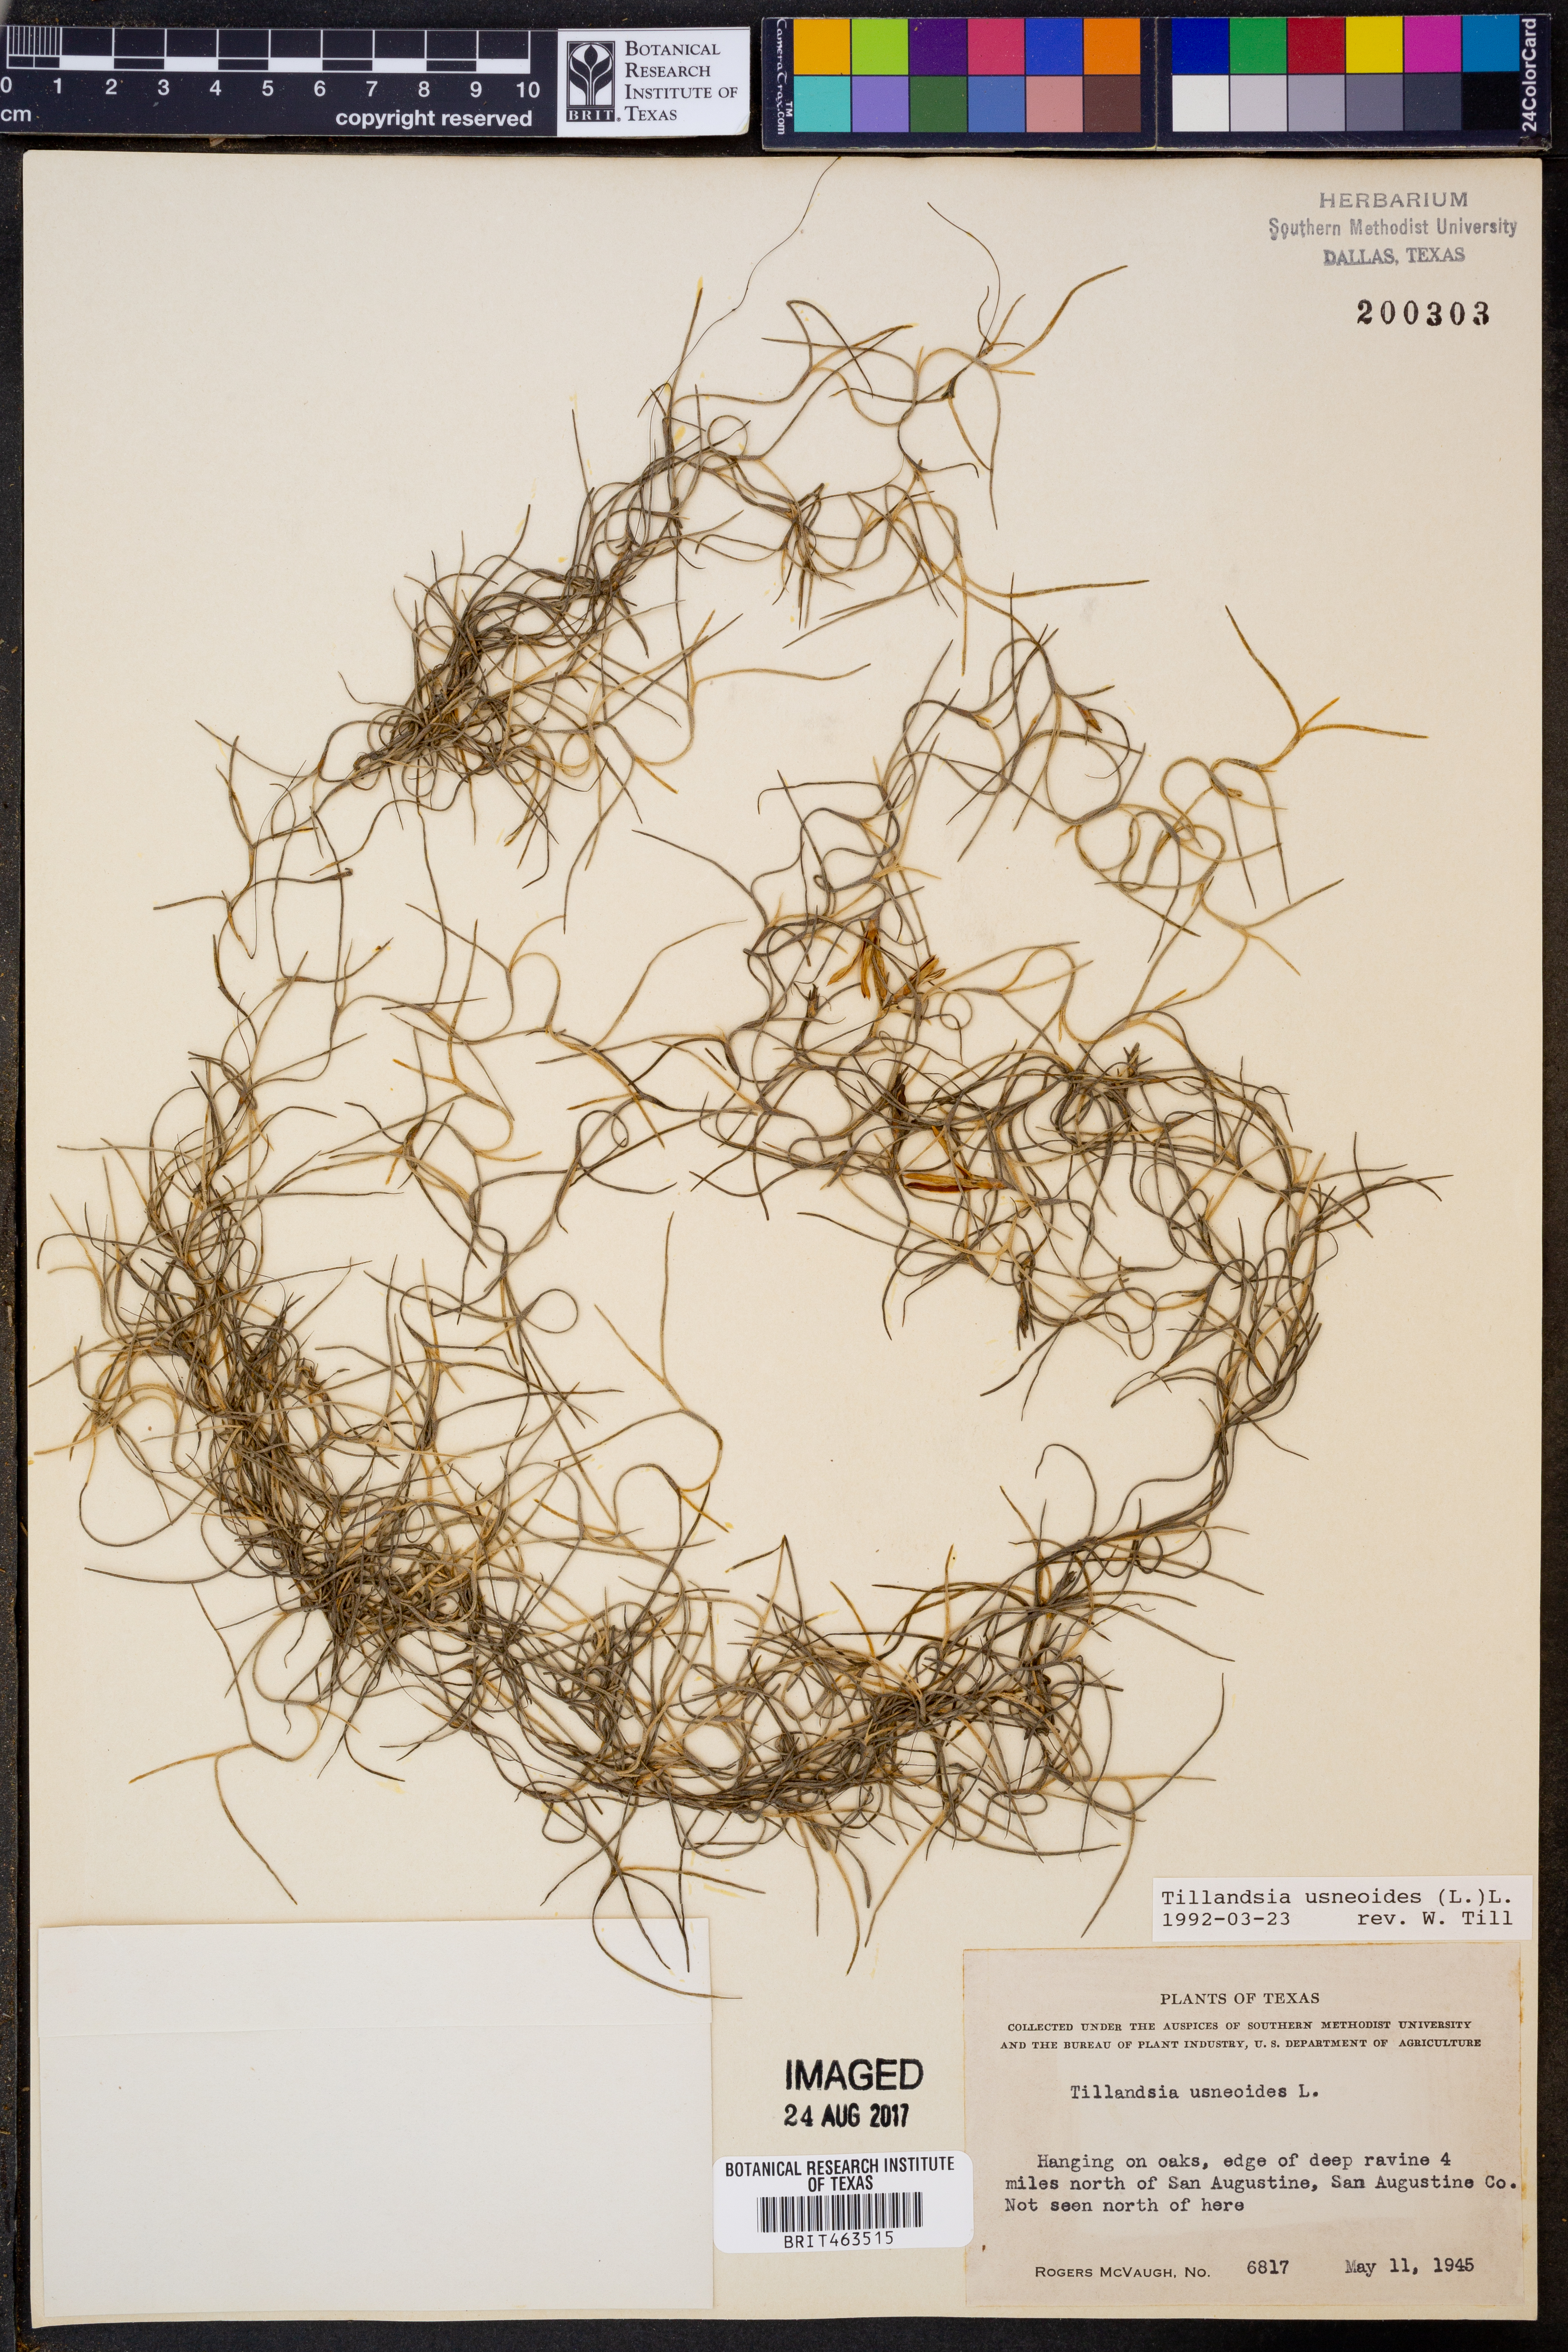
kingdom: Plantae
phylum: Tracheophyta
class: Liliopsida
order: Poales
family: Bromeliaceae
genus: Tillandsia
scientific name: Tillandsia usneoides
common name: Spanish moss
